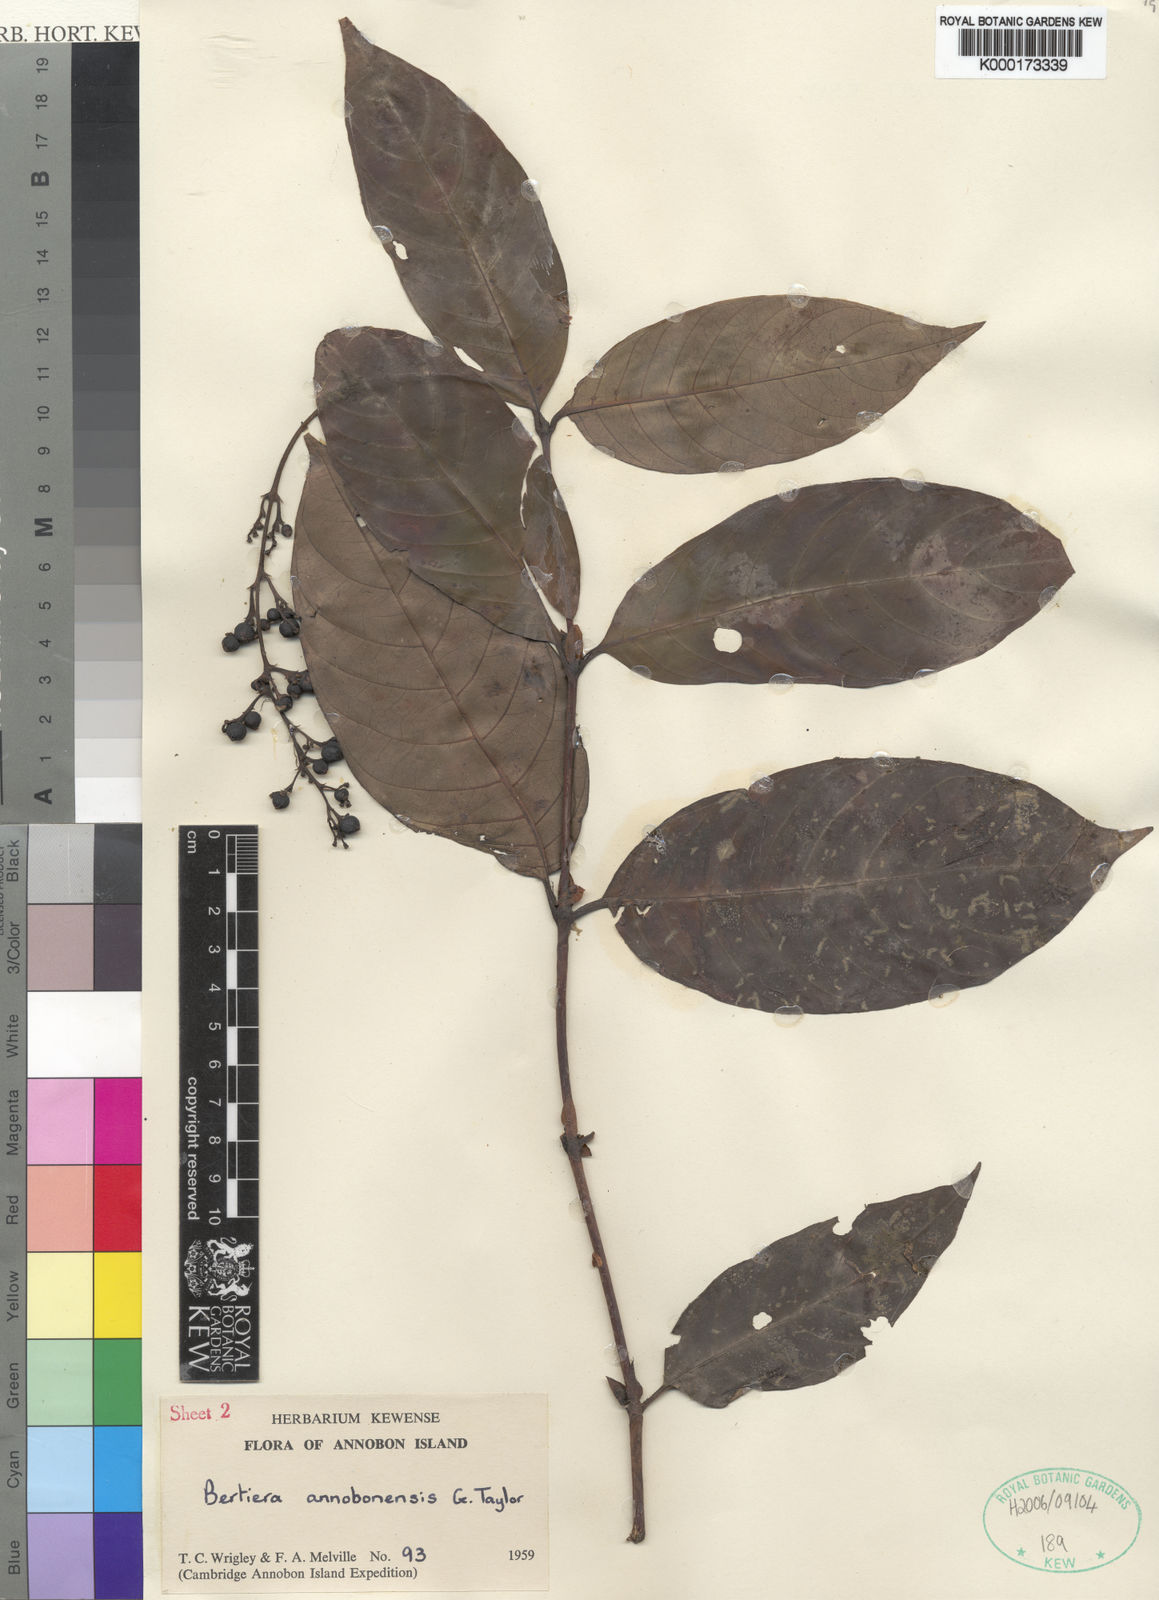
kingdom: Plantae
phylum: Tracheophyta
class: Magnoliopsida
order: Gentianales
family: Rubiaceae
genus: Bertiera
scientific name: Bertiera annobonensis
